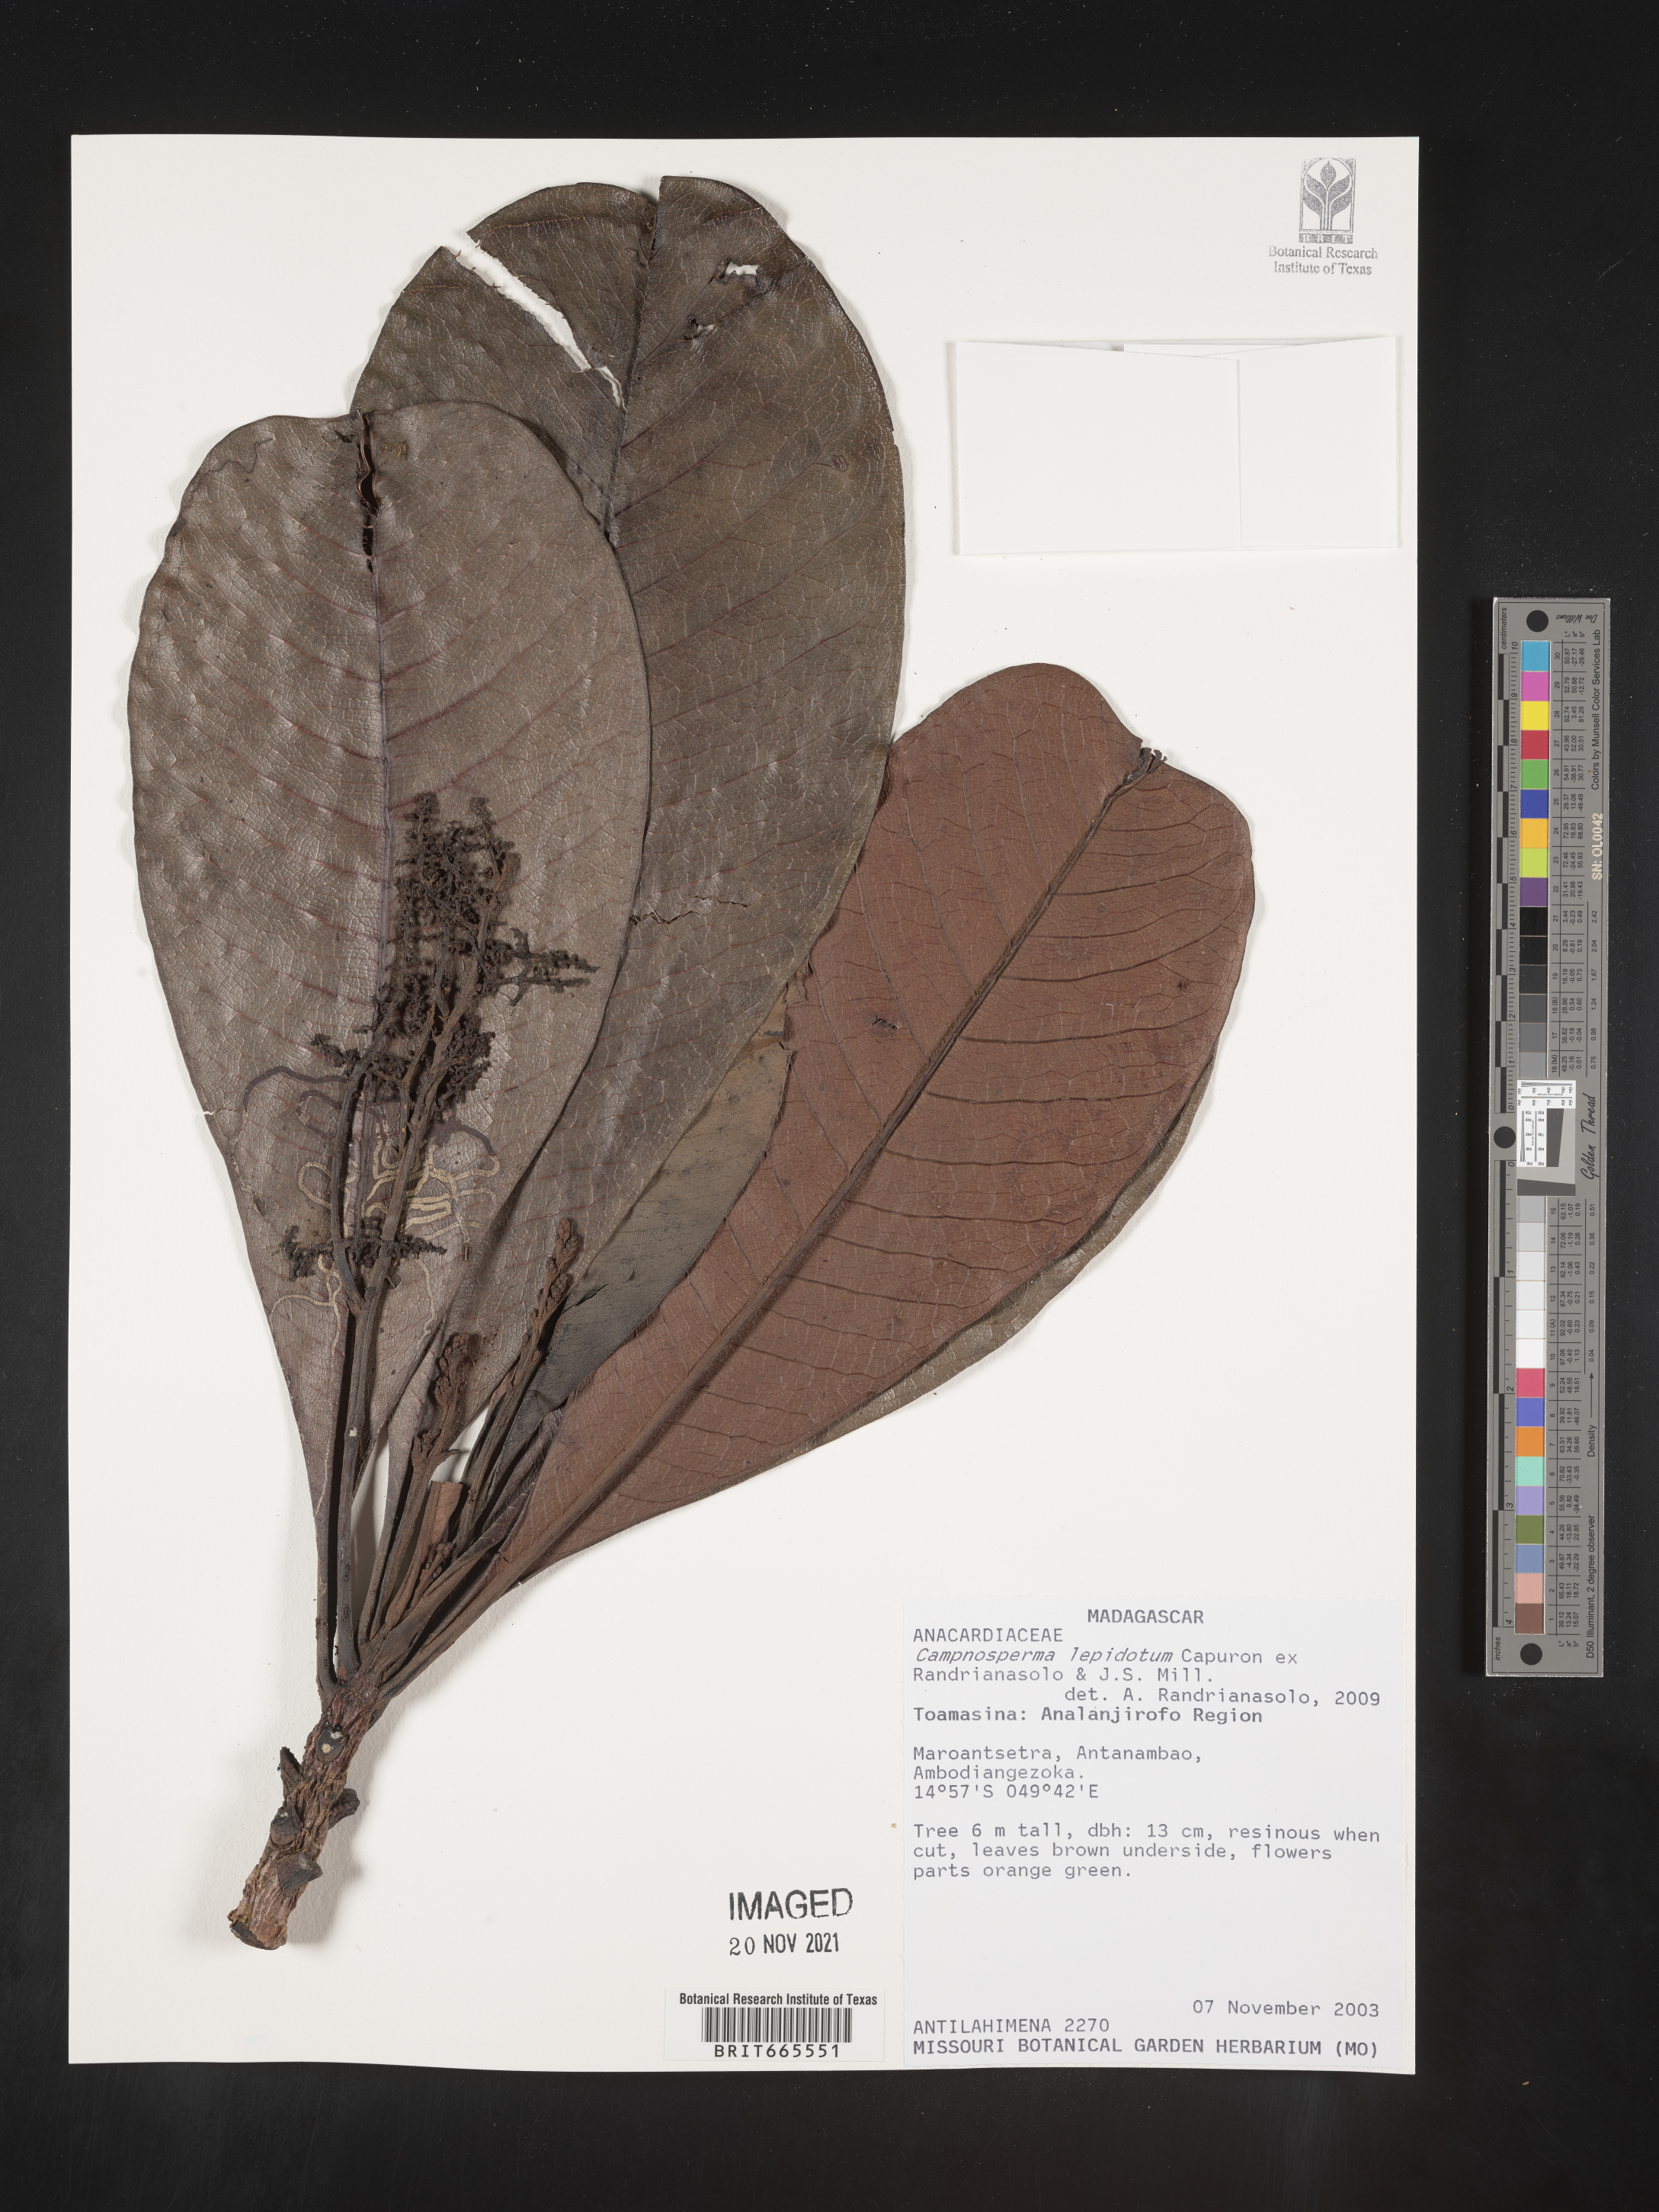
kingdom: Plantae
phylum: Tracheophyta
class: Magnoliopsida
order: Sapindales
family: Anacardiaceae
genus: Campnosperma
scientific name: Campnosperma
